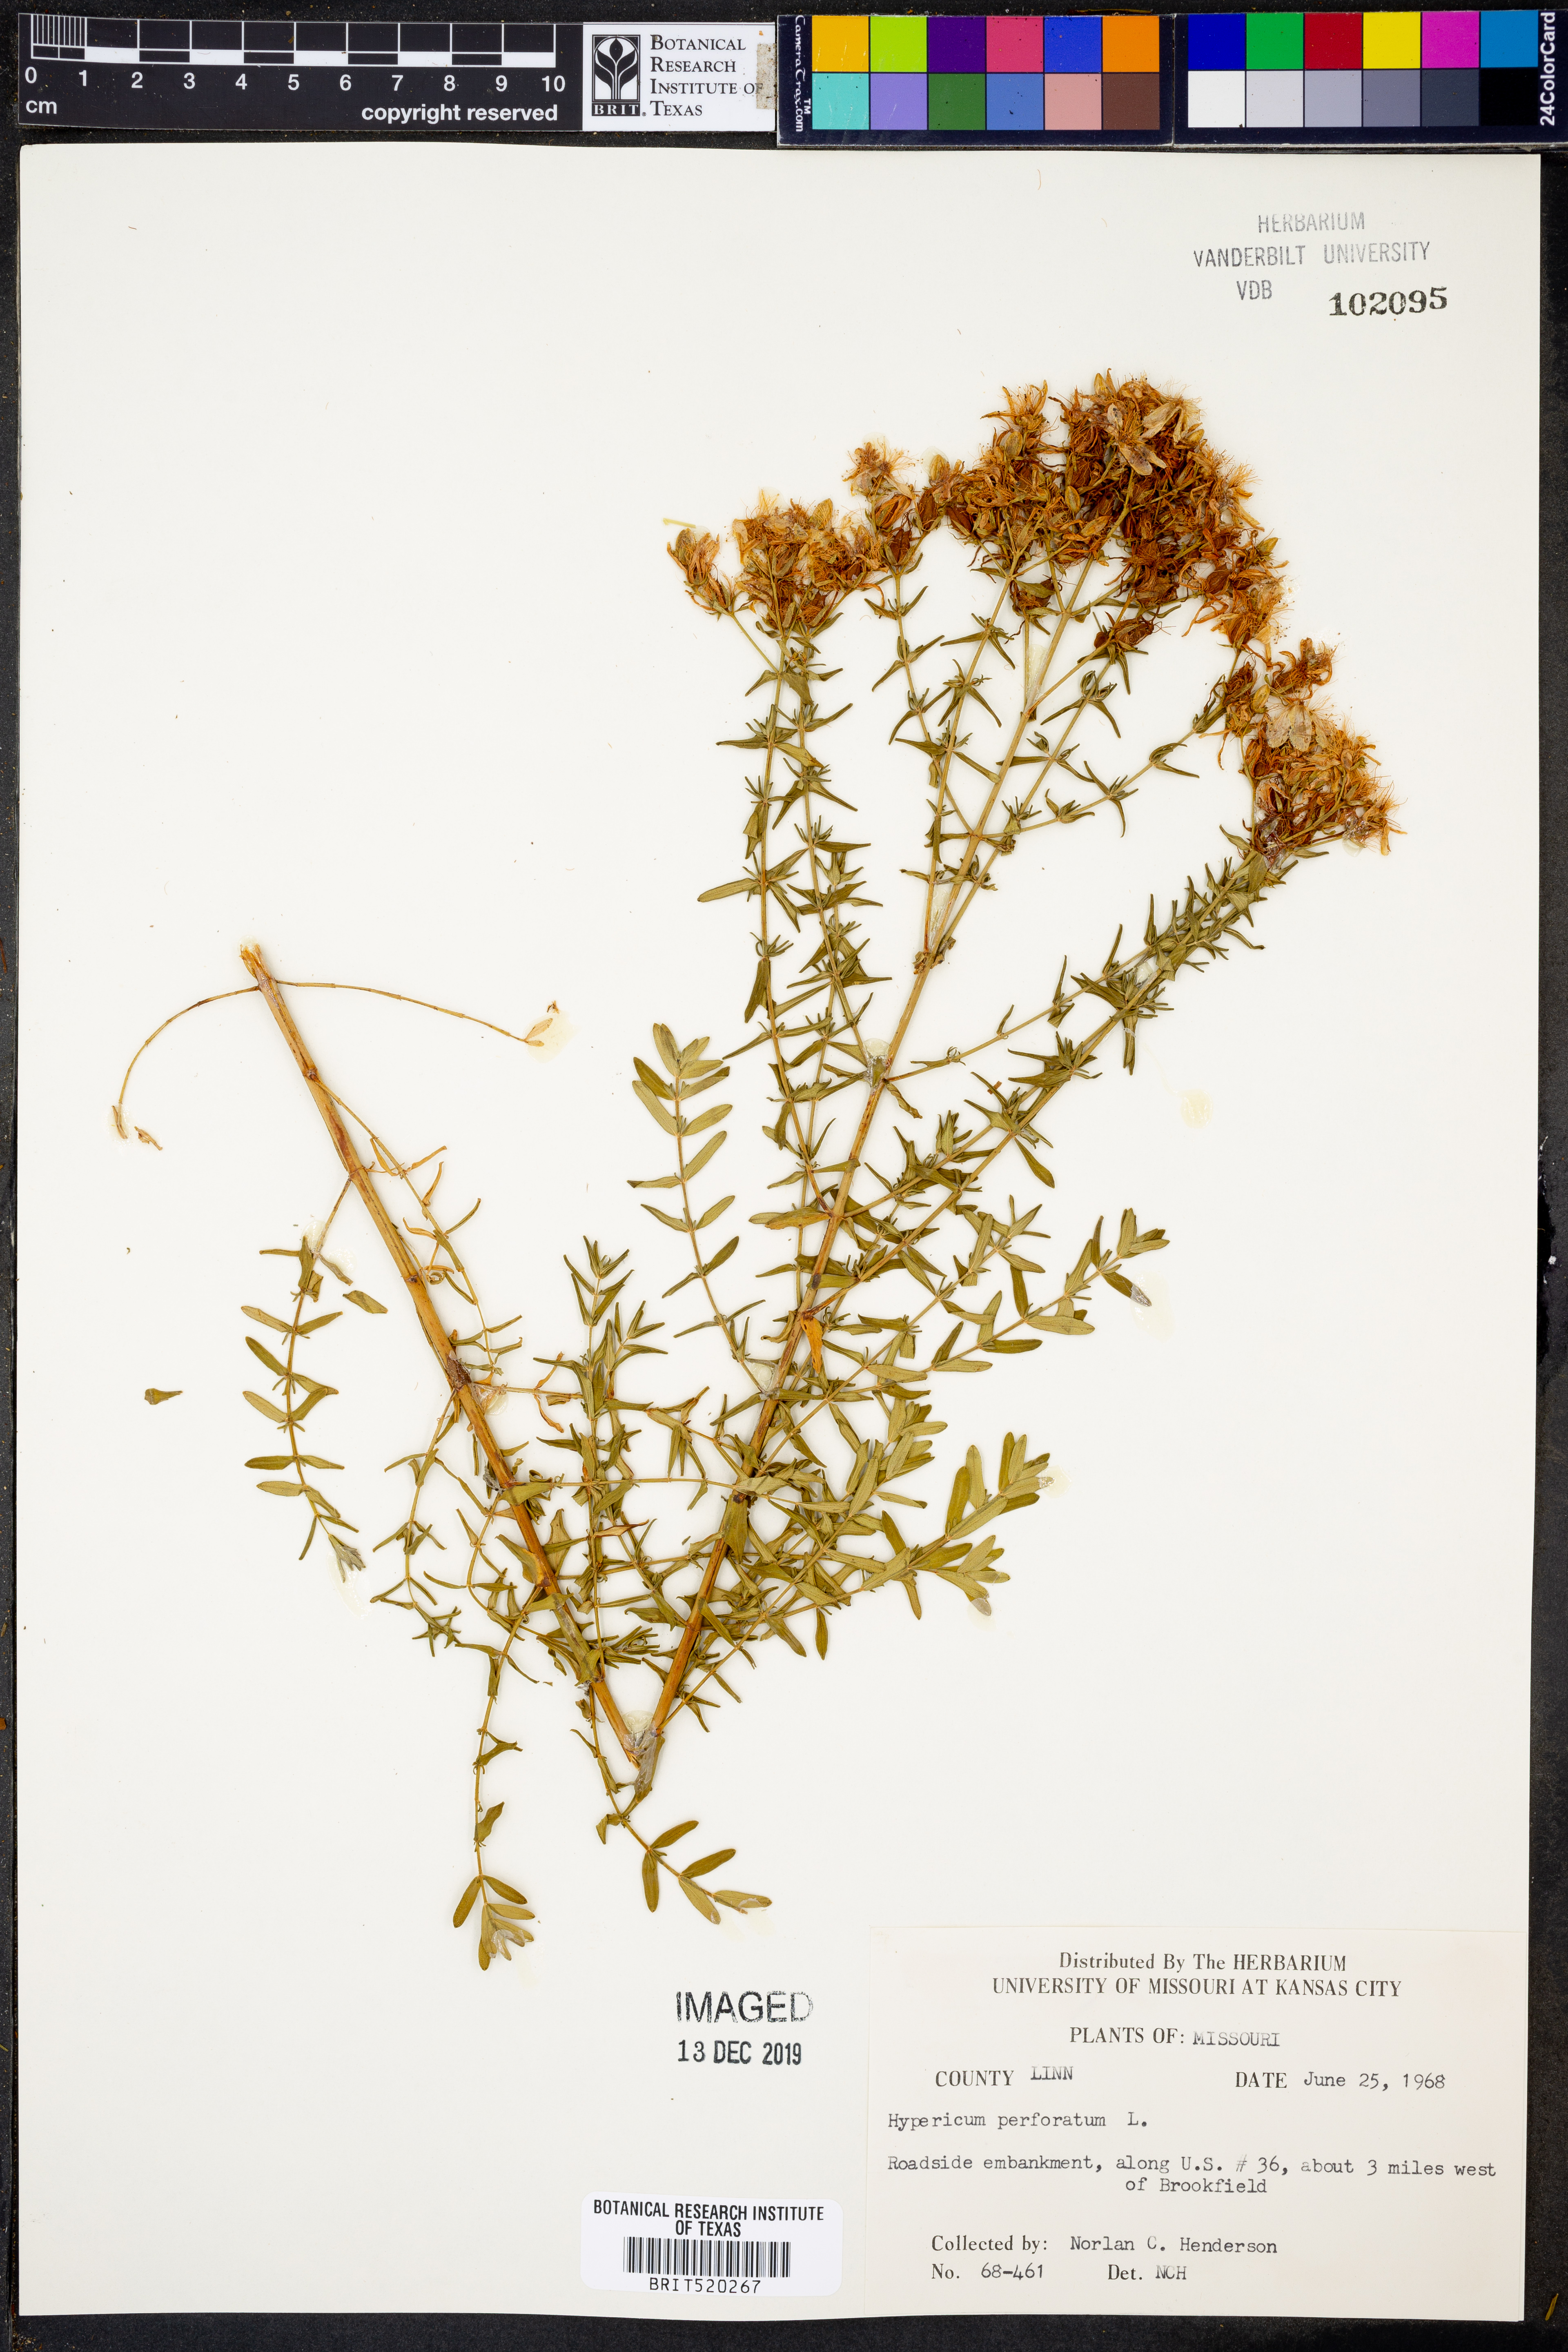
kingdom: Plantae
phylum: Tracheophyta
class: Magnoliopsida
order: Malpighiales
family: Hypericaceae
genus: Hypericum
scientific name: Hypericum perforatum
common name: Common st. johnswort
